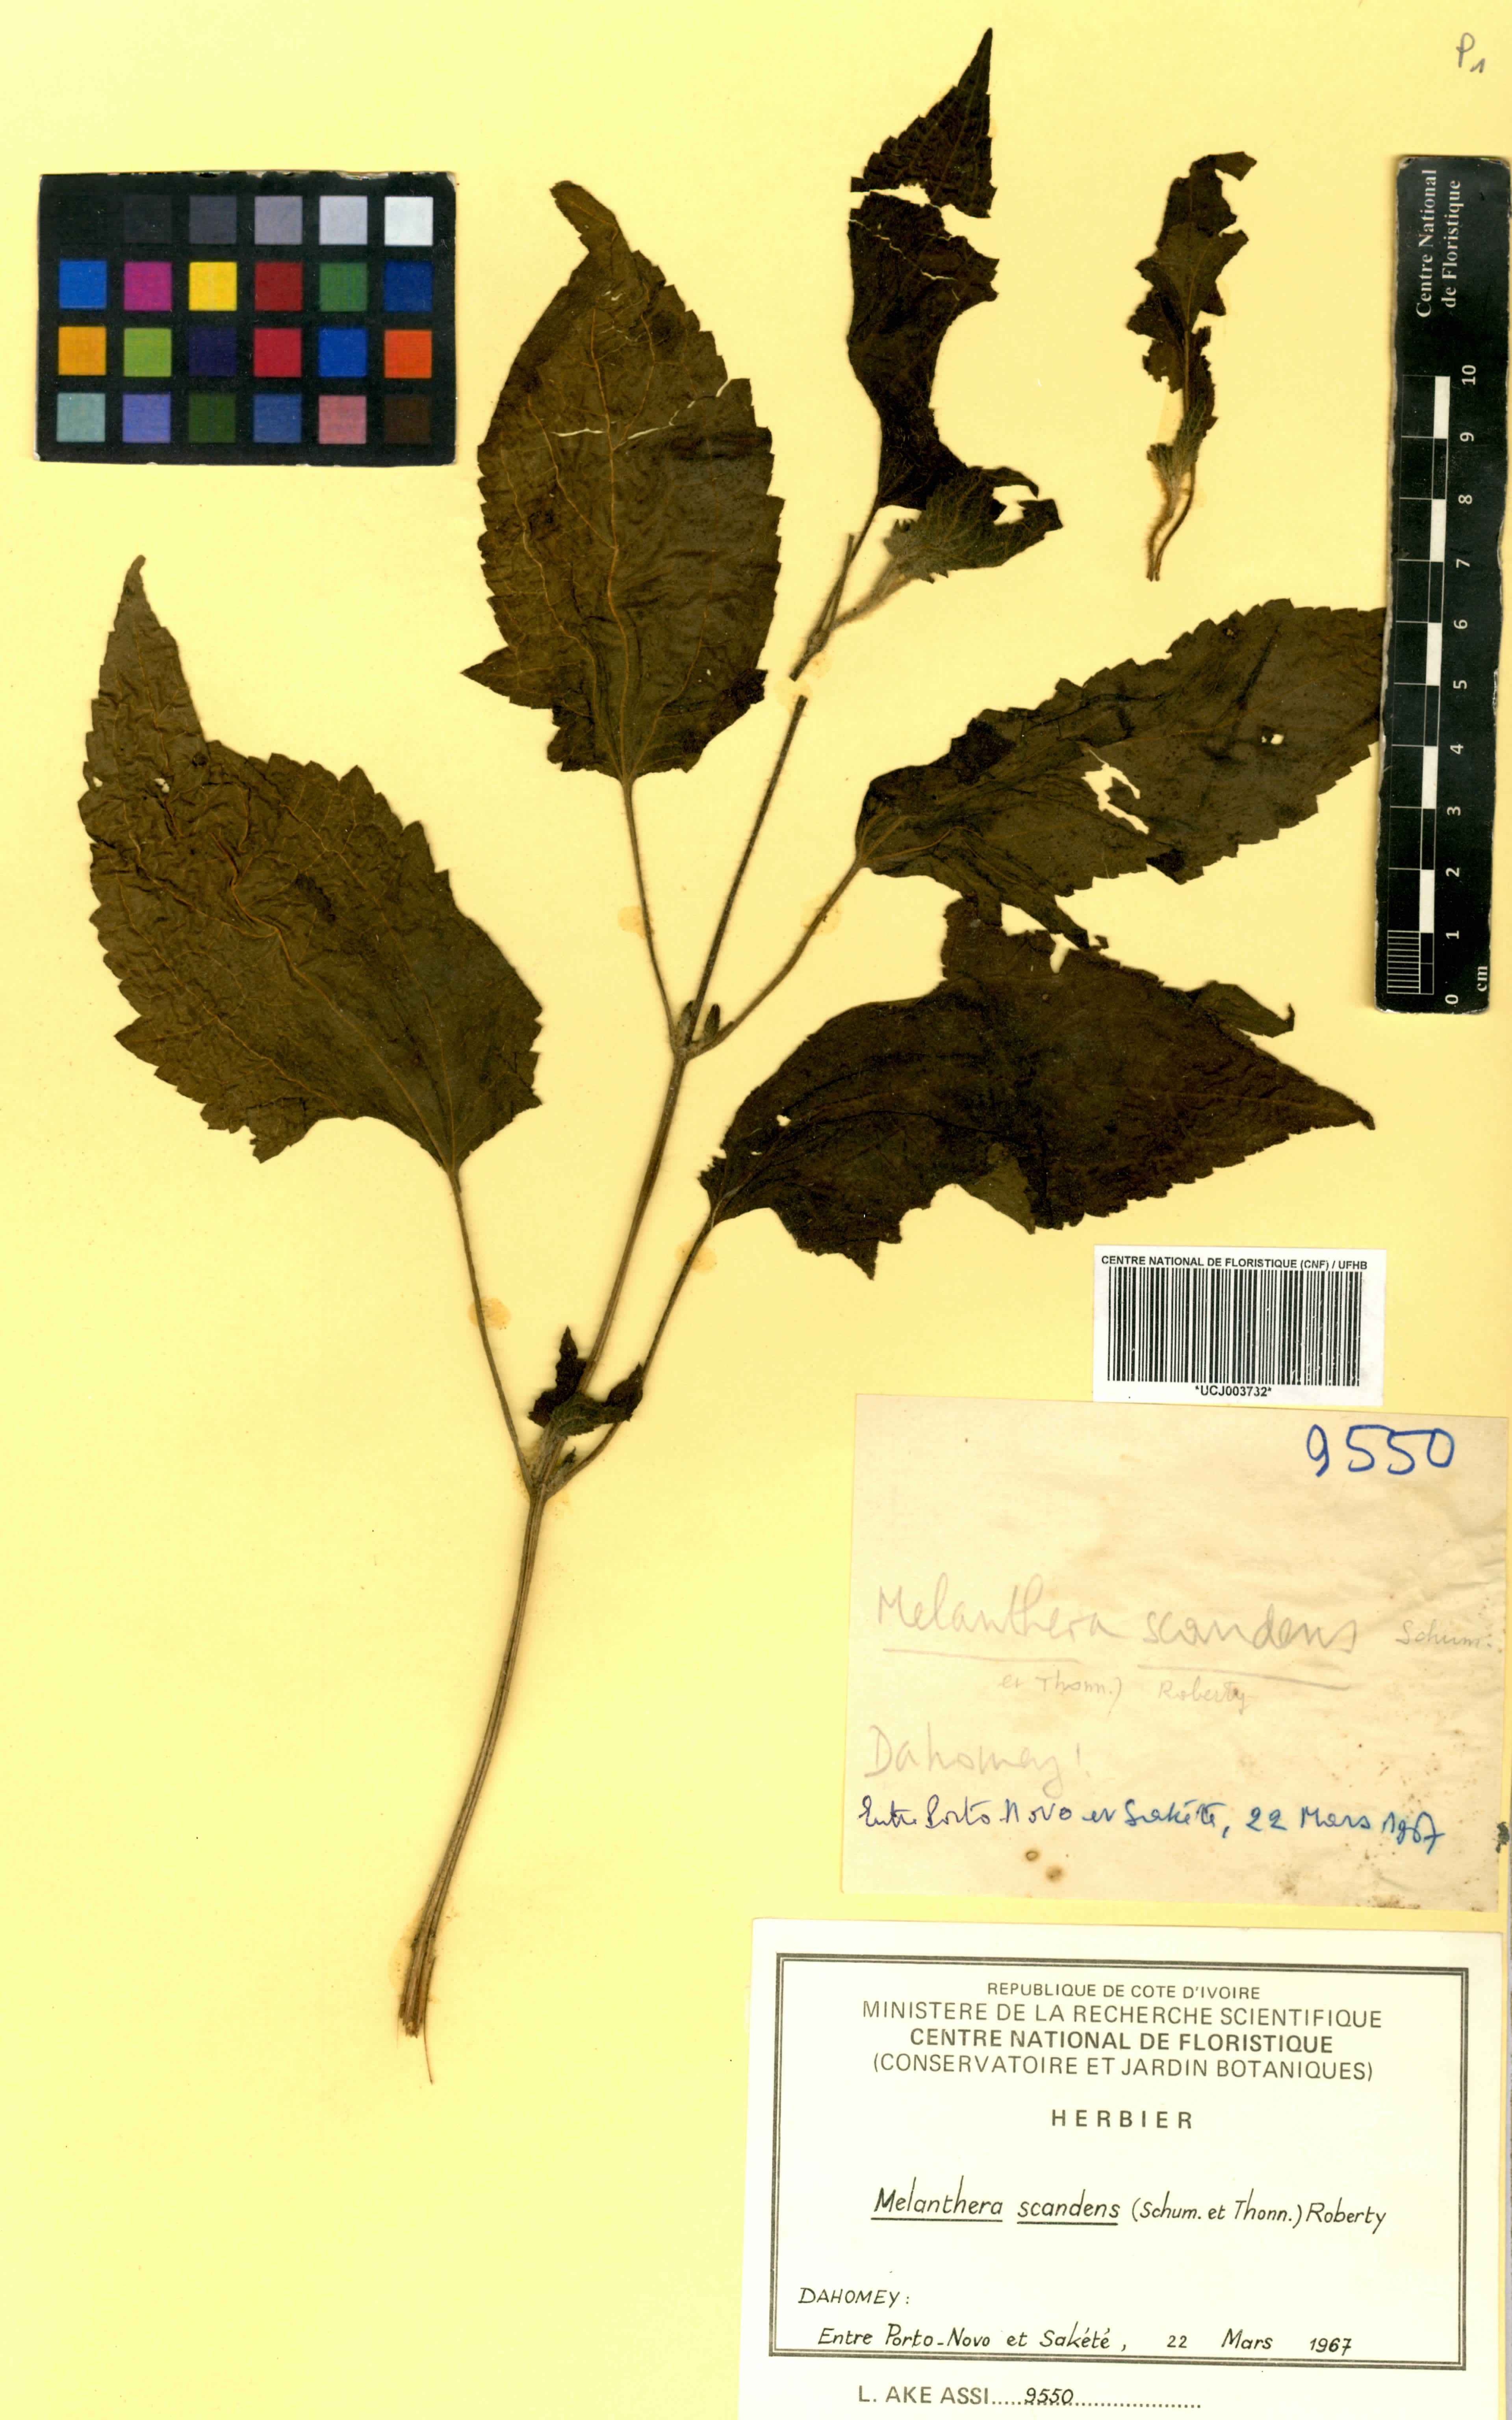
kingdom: Plantae
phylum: Tracheophyta
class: Magnoliopsida
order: Asterales
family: Asteraceae
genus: Melanthera
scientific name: Melanthera scandens
